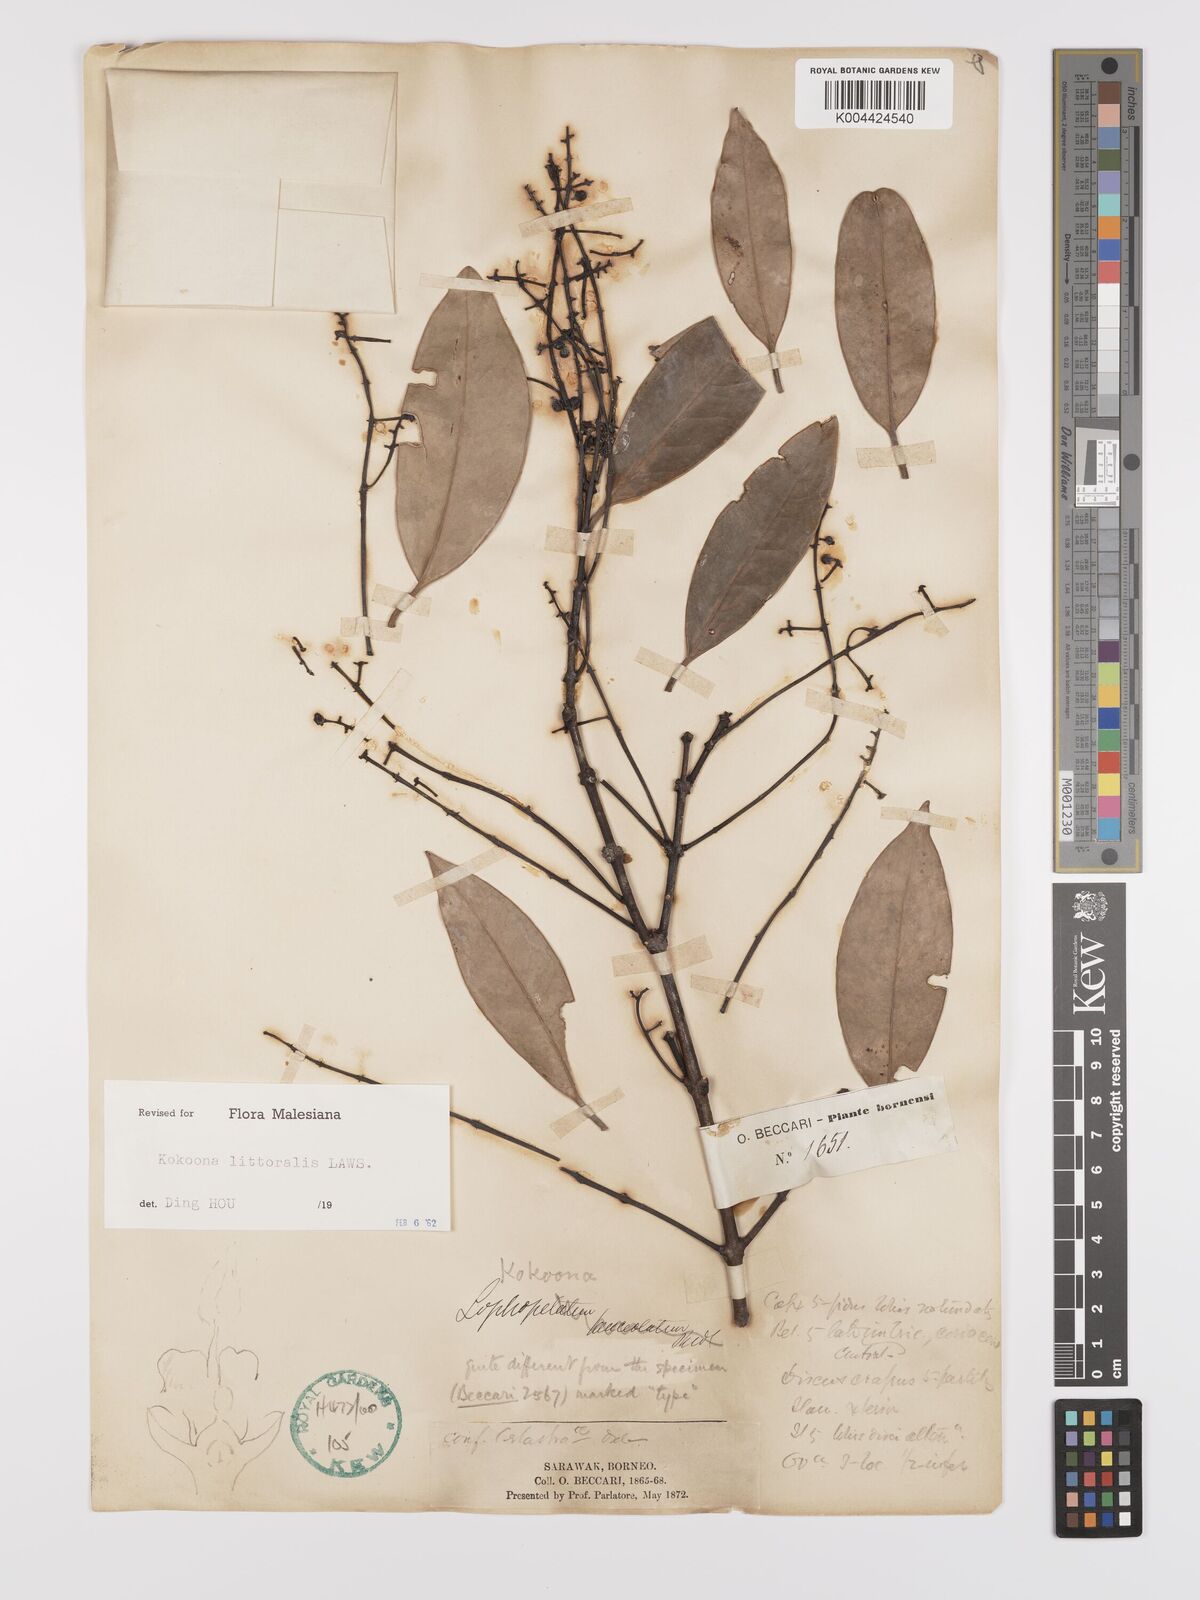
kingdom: Plantae
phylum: Tracheophyta
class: Magnoliopsida
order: Celastrales
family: Celastraceae
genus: Kokoona
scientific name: Kokoona littoralis
